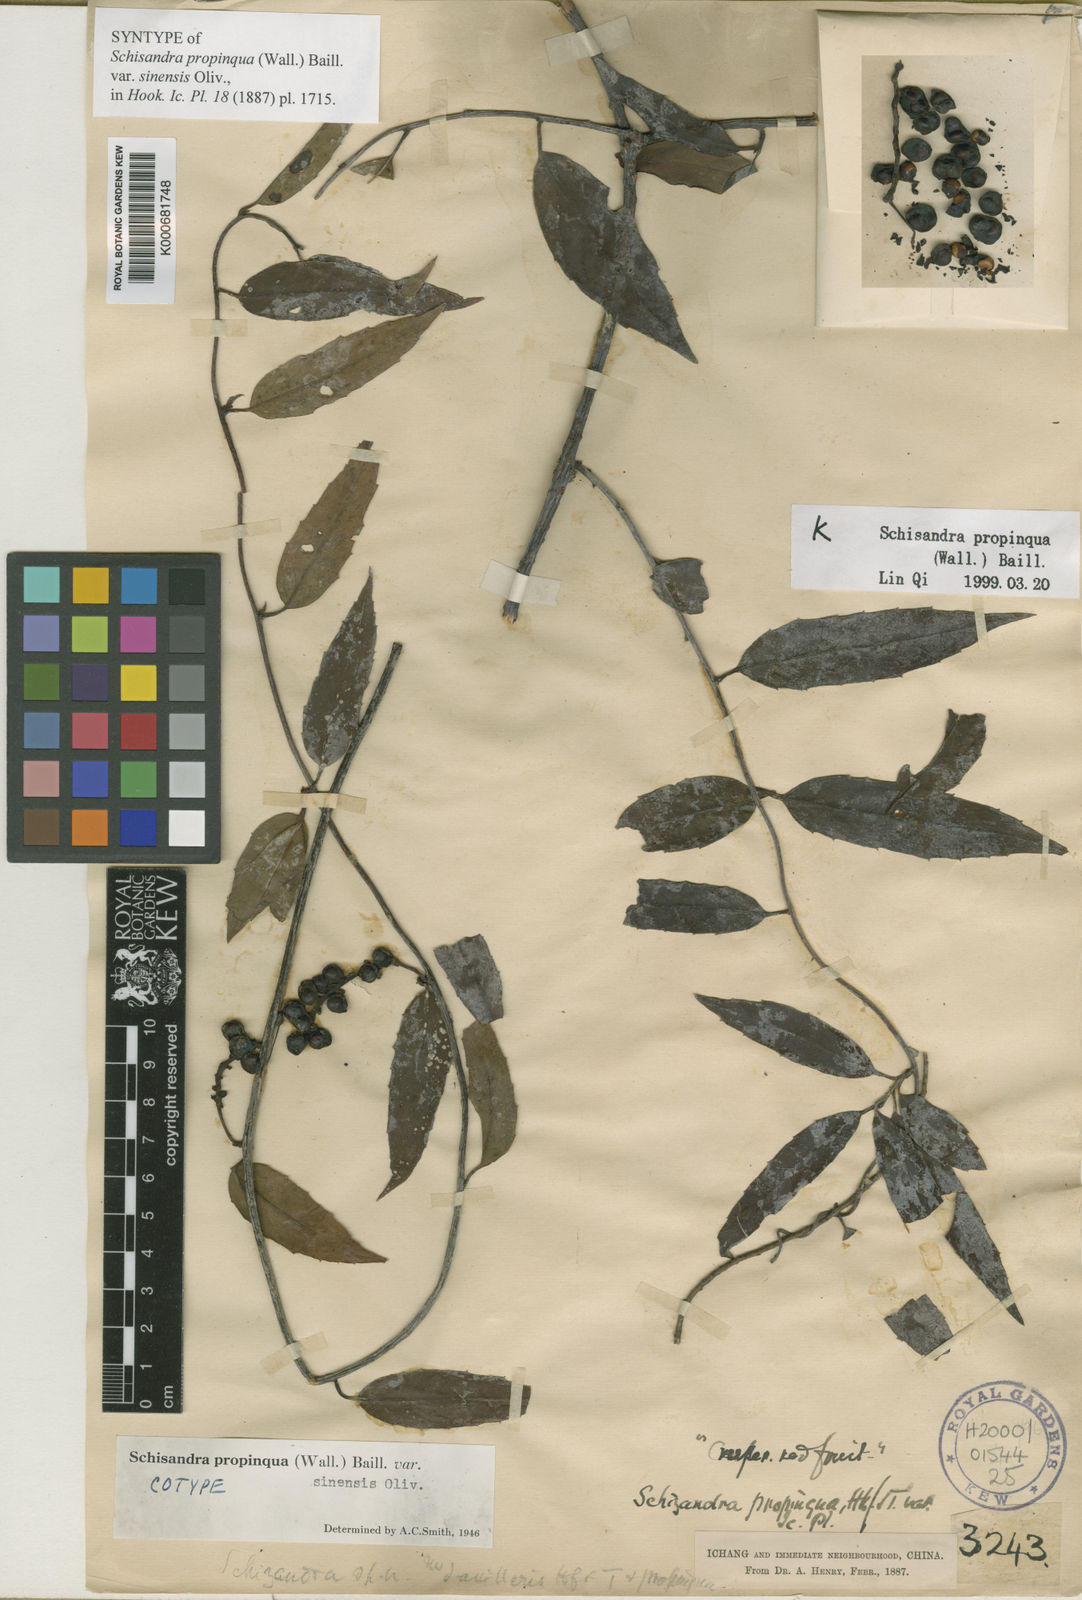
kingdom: Plantae
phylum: Tracheophyta
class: Magnoliopsida
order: Austrobaileyales
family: Schisandraceae
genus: Schisandra
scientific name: Schisandra propinqua
